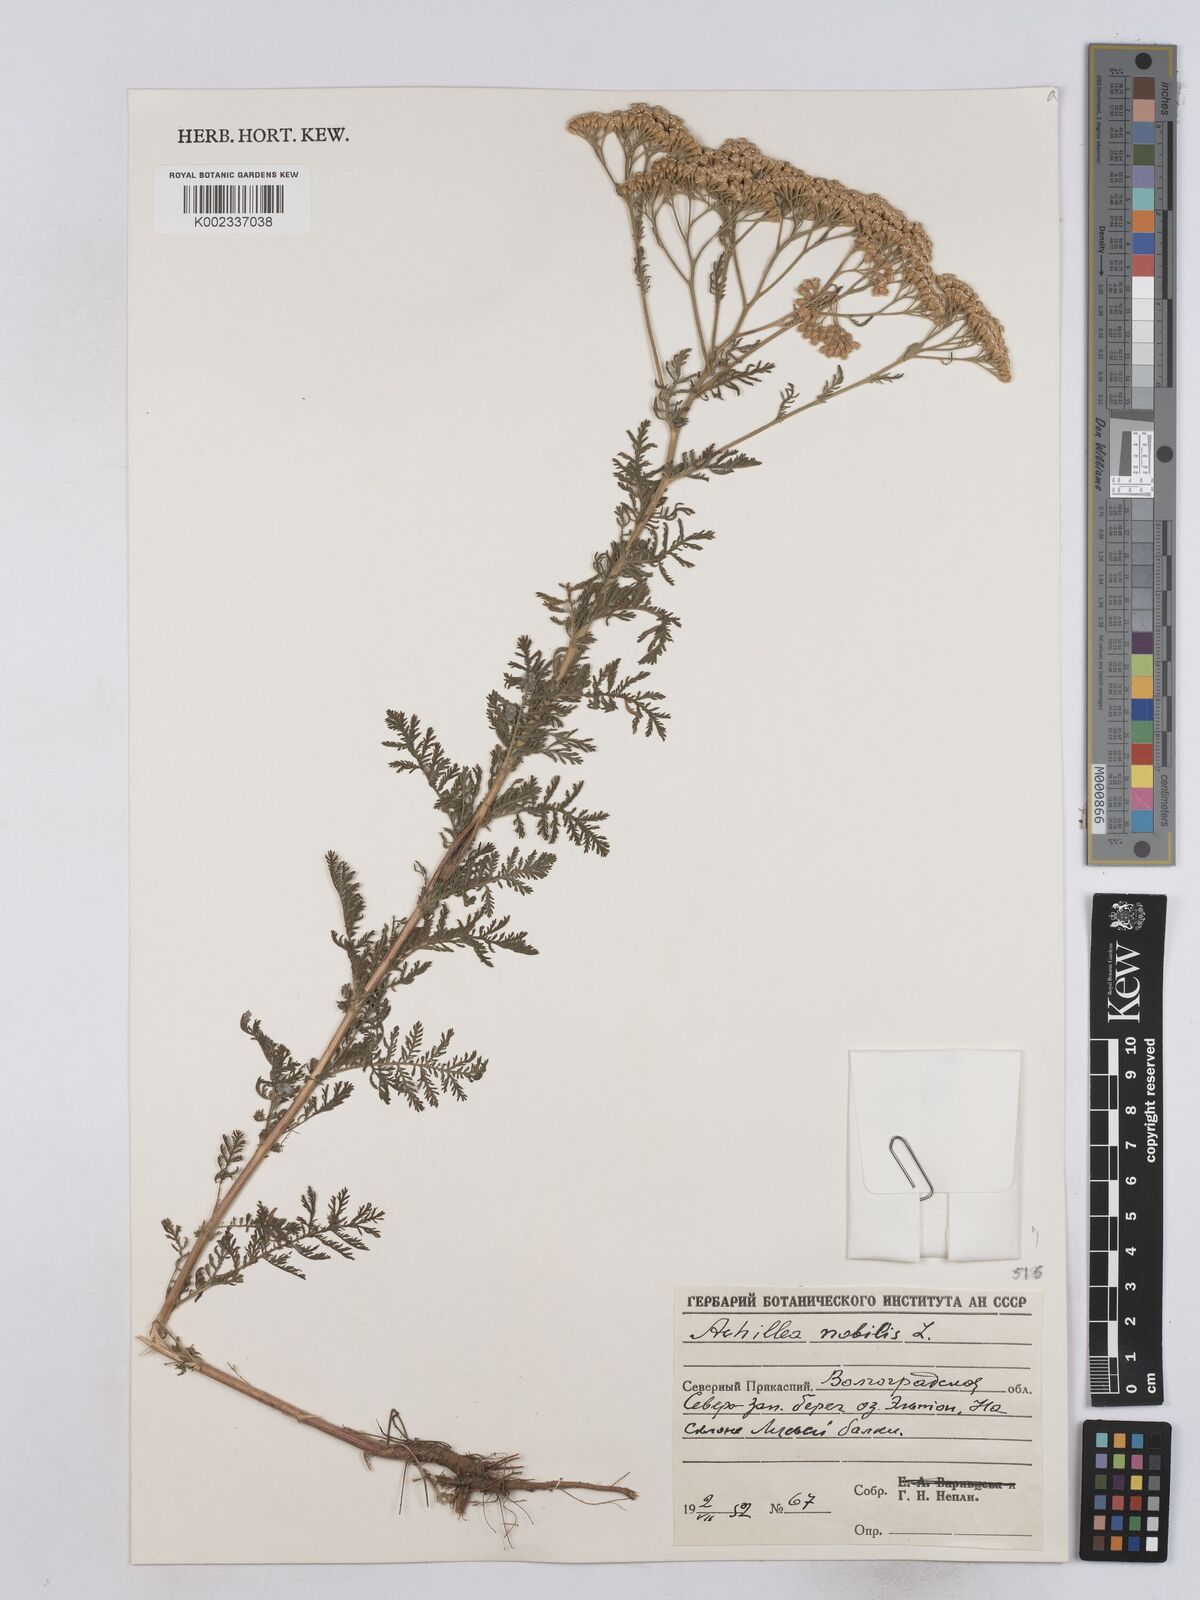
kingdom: Plantae
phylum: Tracheophyta
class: Magnoliopsida
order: Asterales
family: Asteraceae
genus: Achillea
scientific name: Achillea nobilis
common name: Noble yarrow
